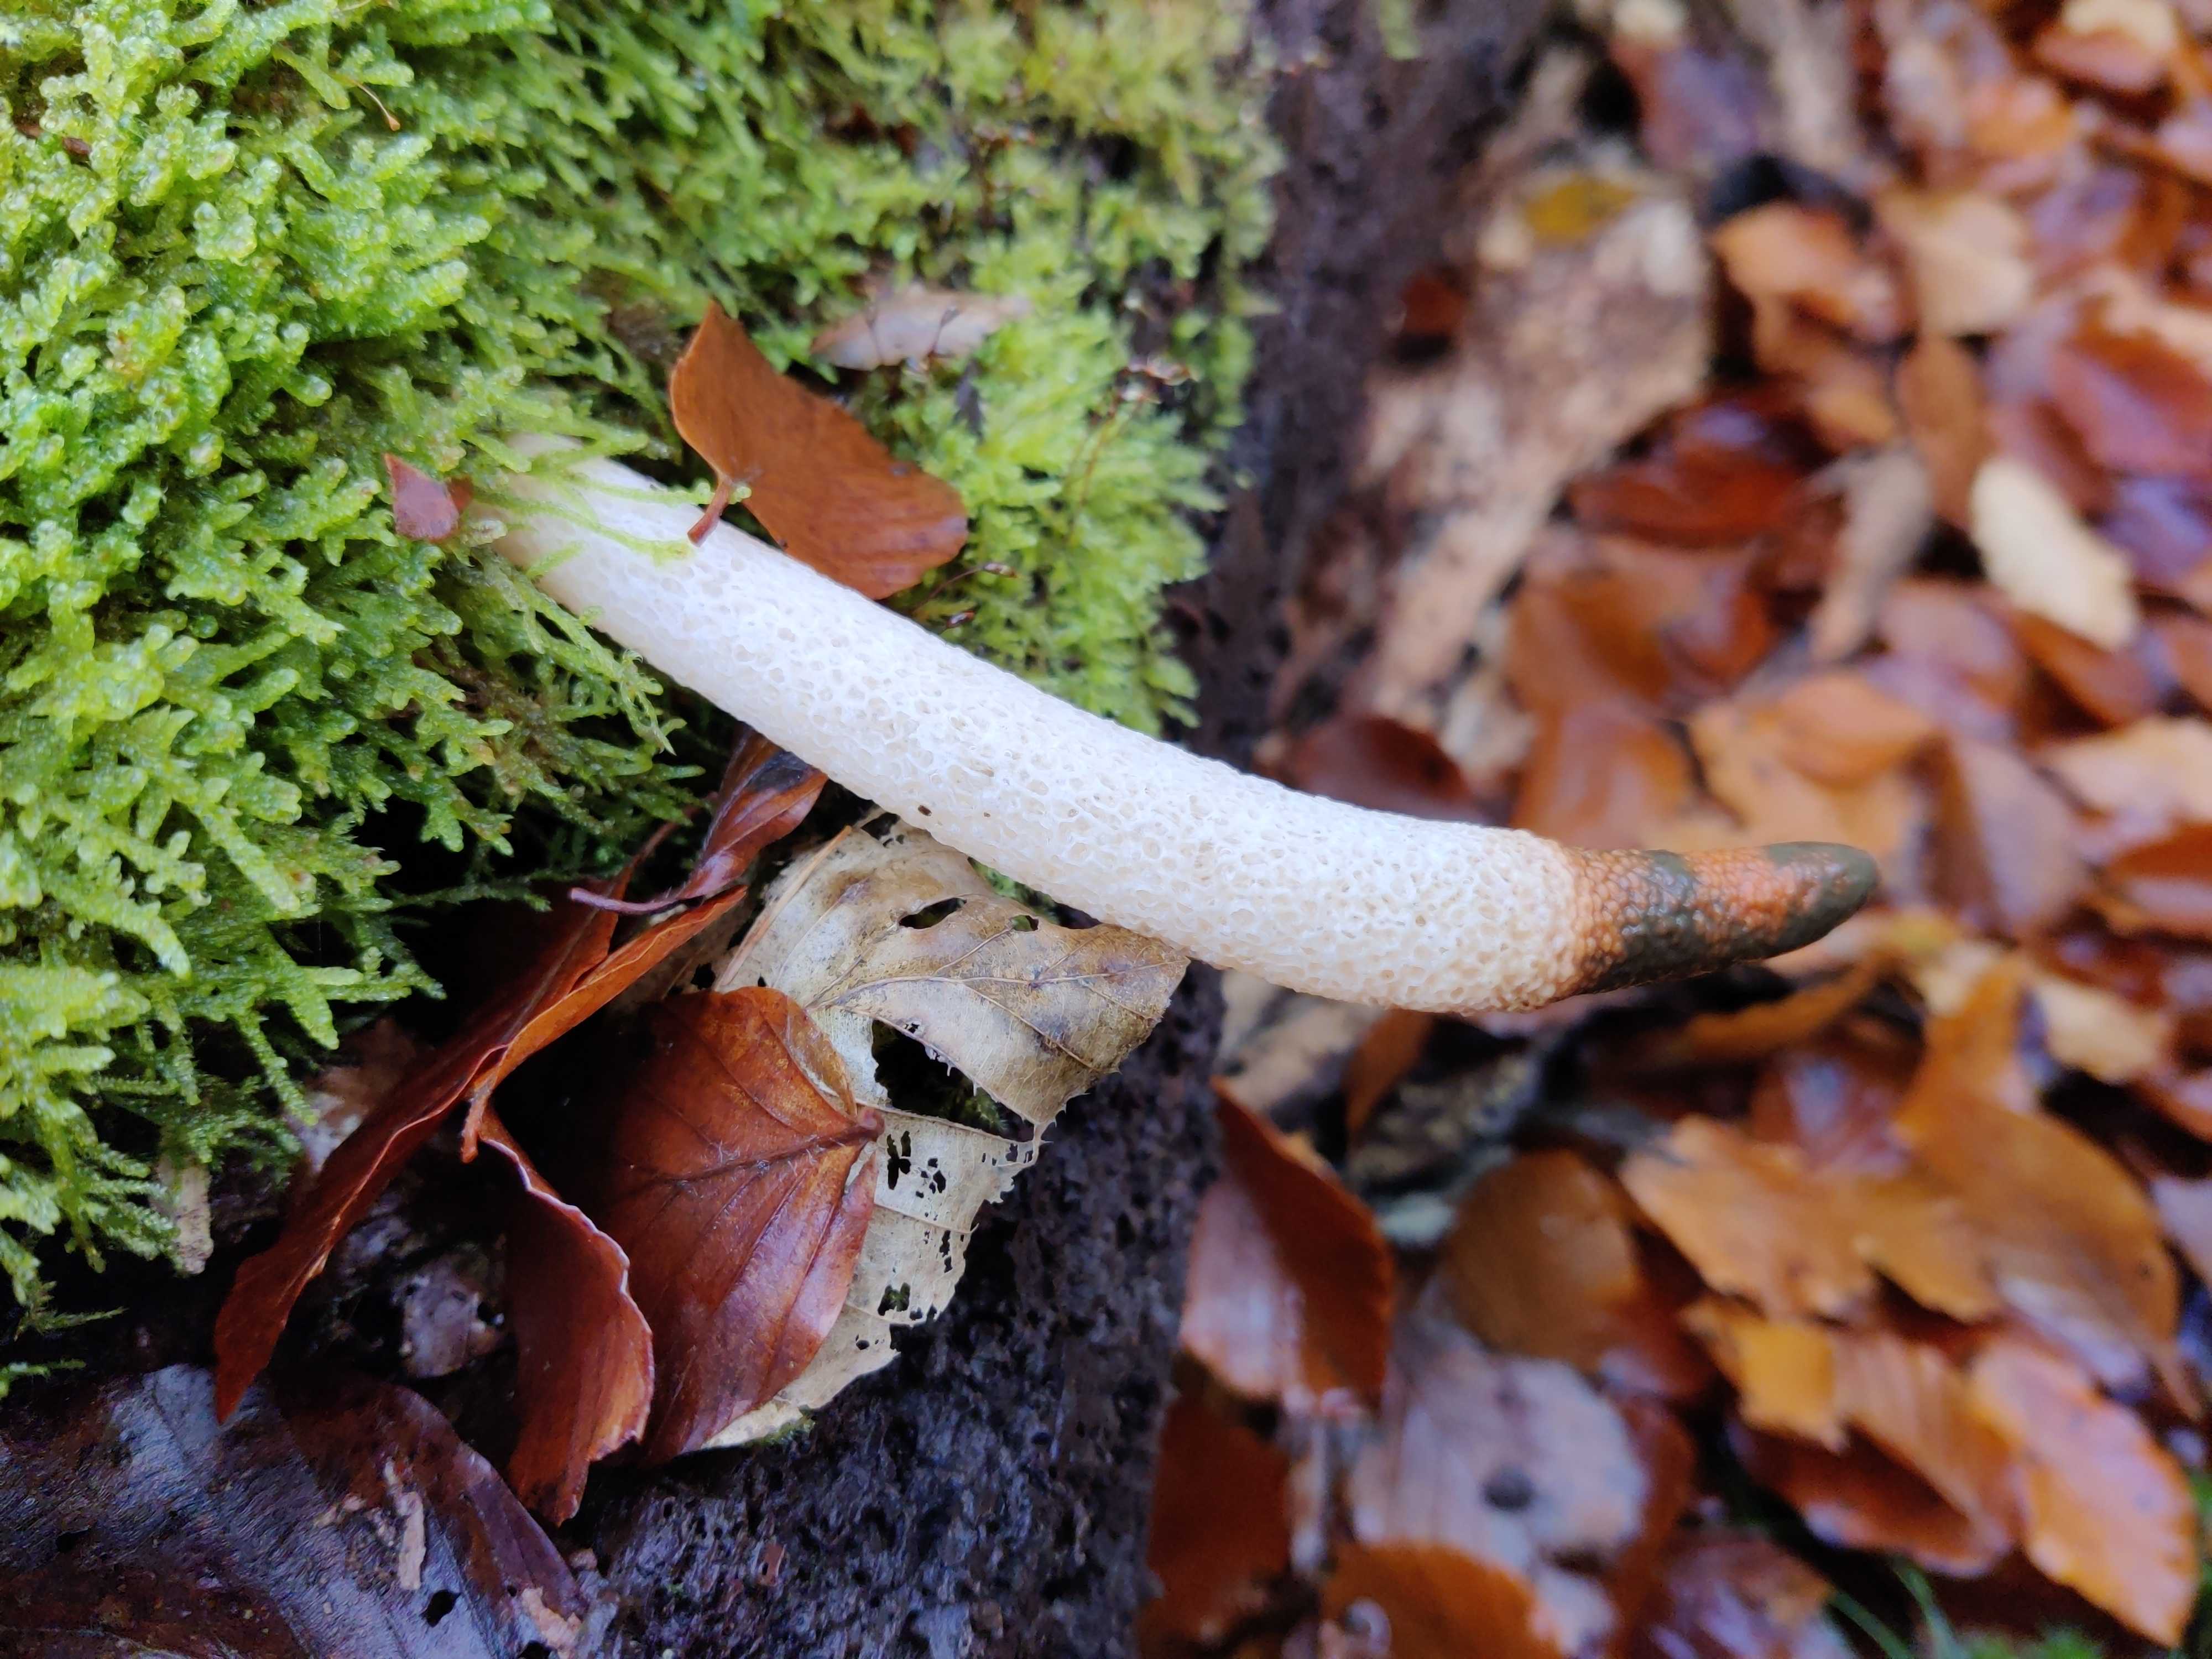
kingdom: Fungi
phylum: Basidiomycota
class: Agaricomycetes
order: Phallales
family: Phallaceae
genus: Mutinus
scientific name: Mutinus caninus
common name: hunde-stinksvamp
